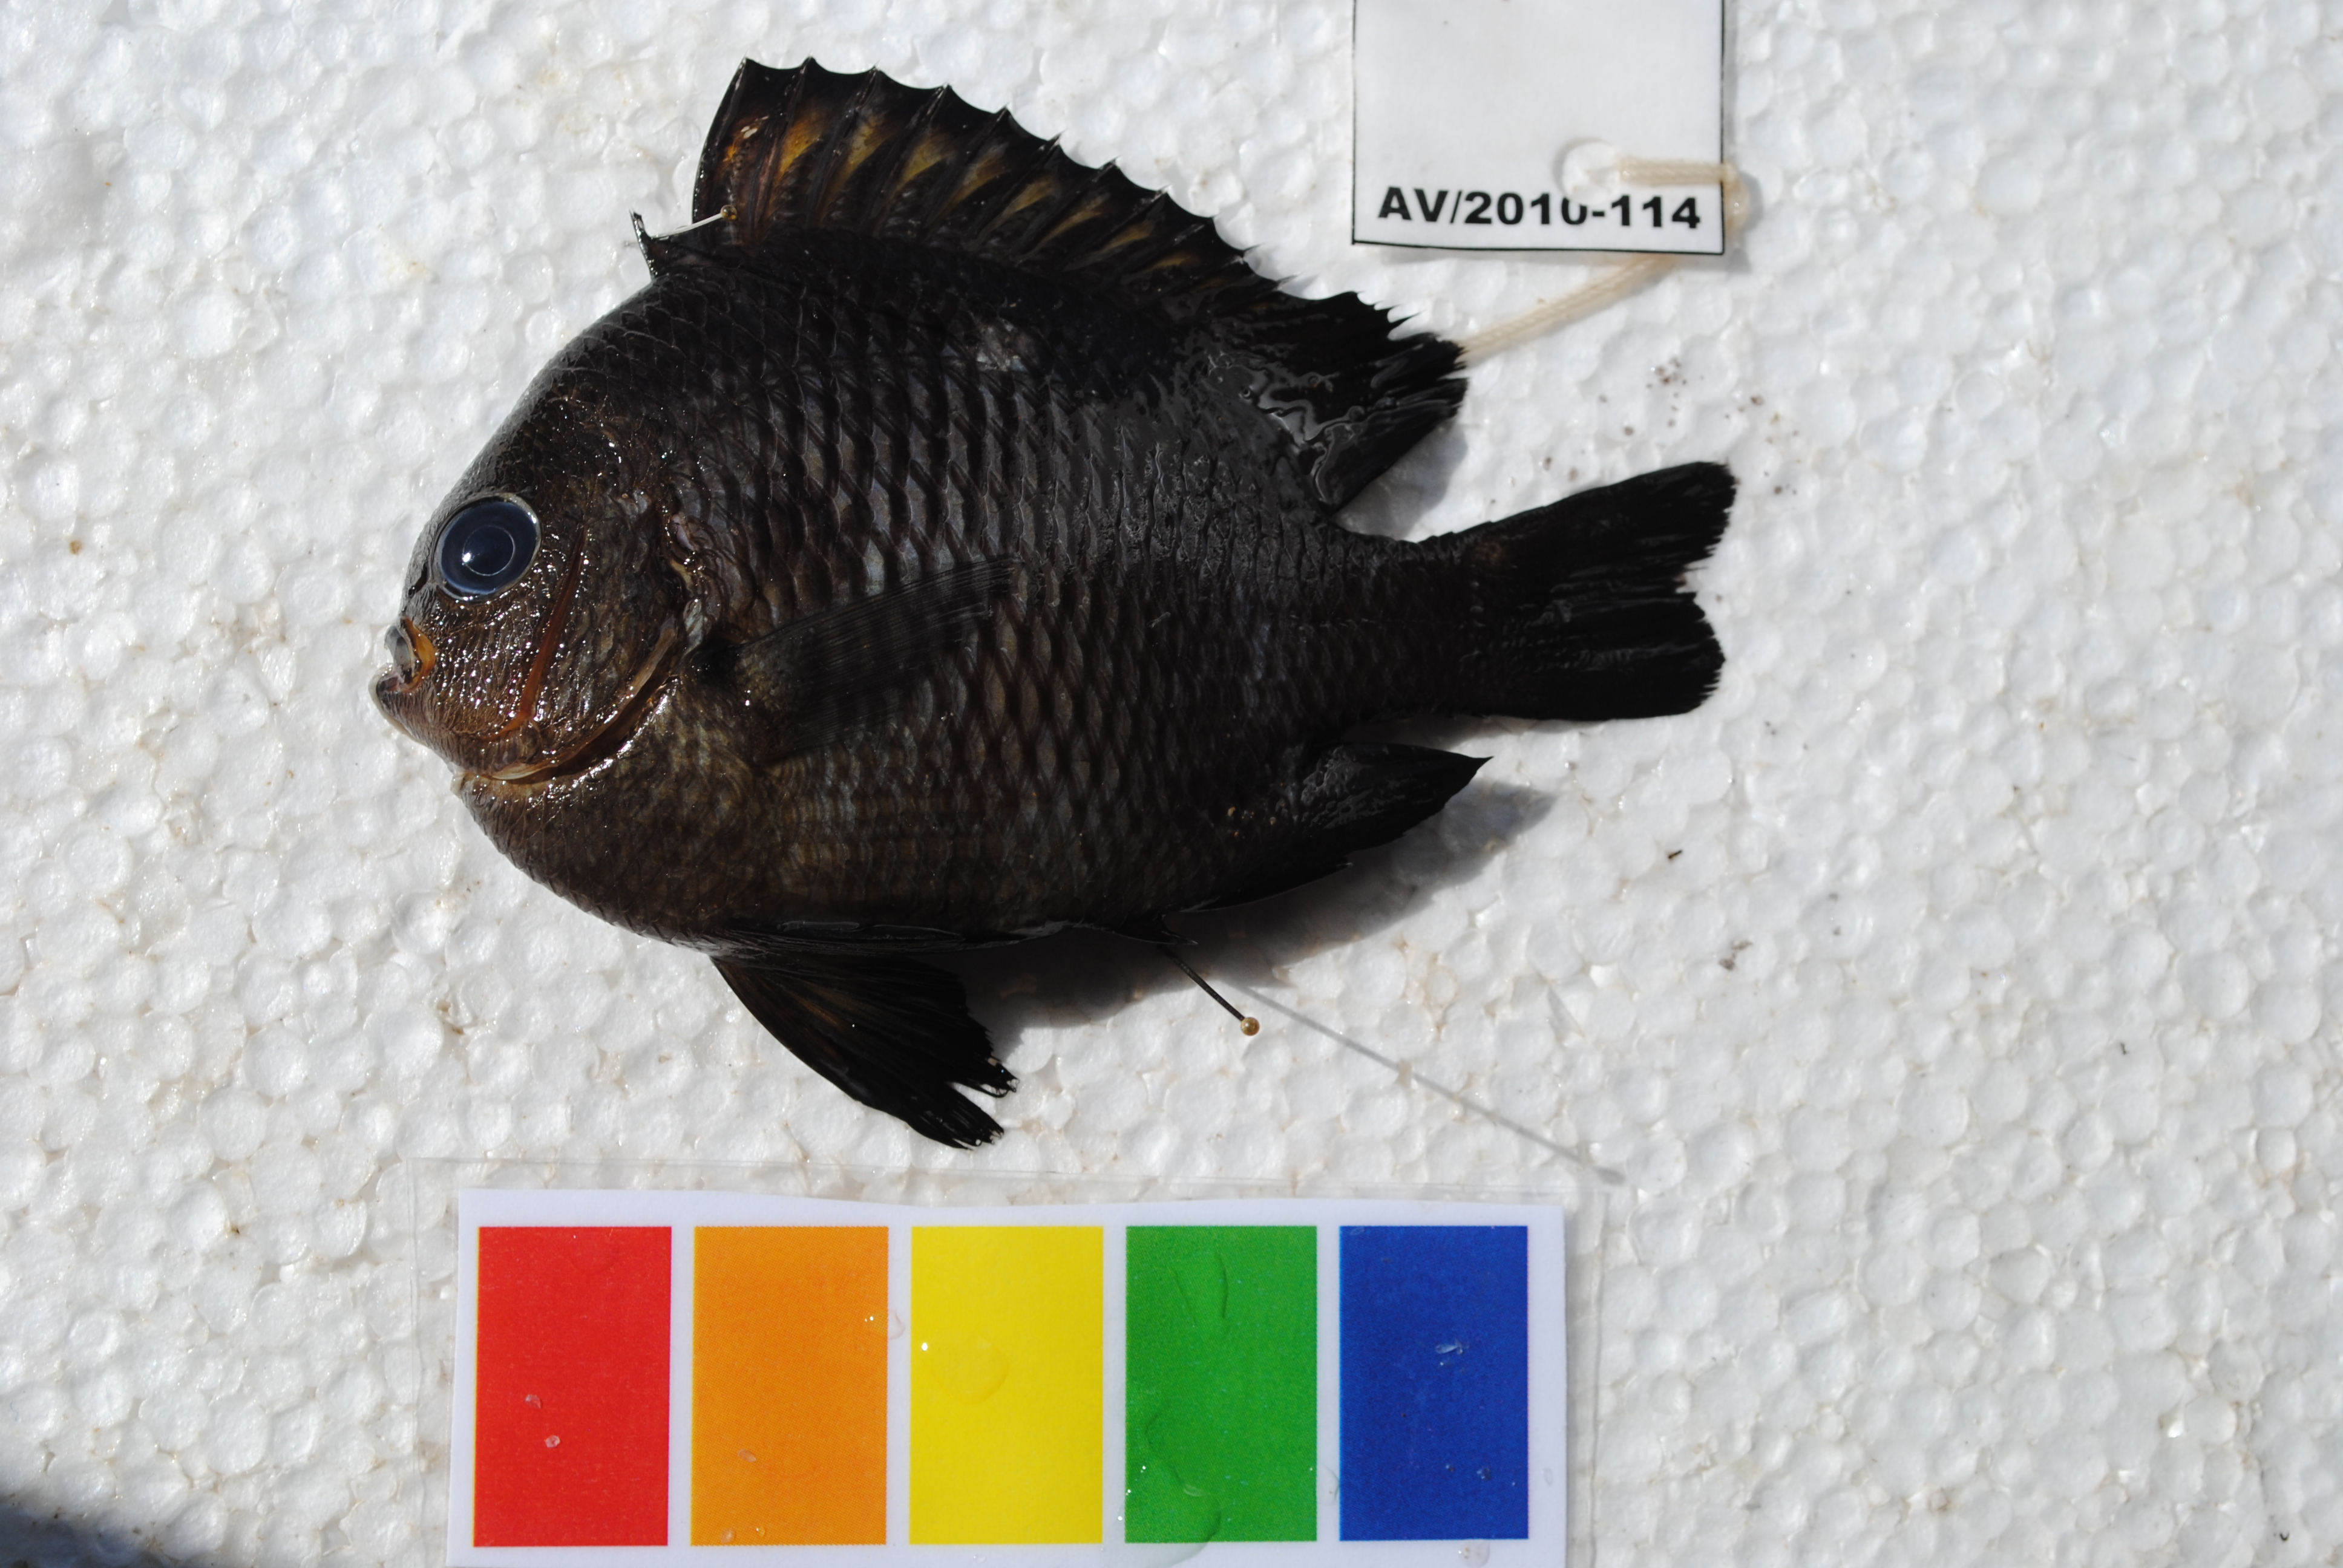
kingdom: Animalia
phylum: Chordata
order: Perciformes
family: Pomacentridae
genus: Dascyllus
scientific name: Dascyllus trimaculatus
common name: Threespot dascyllus
